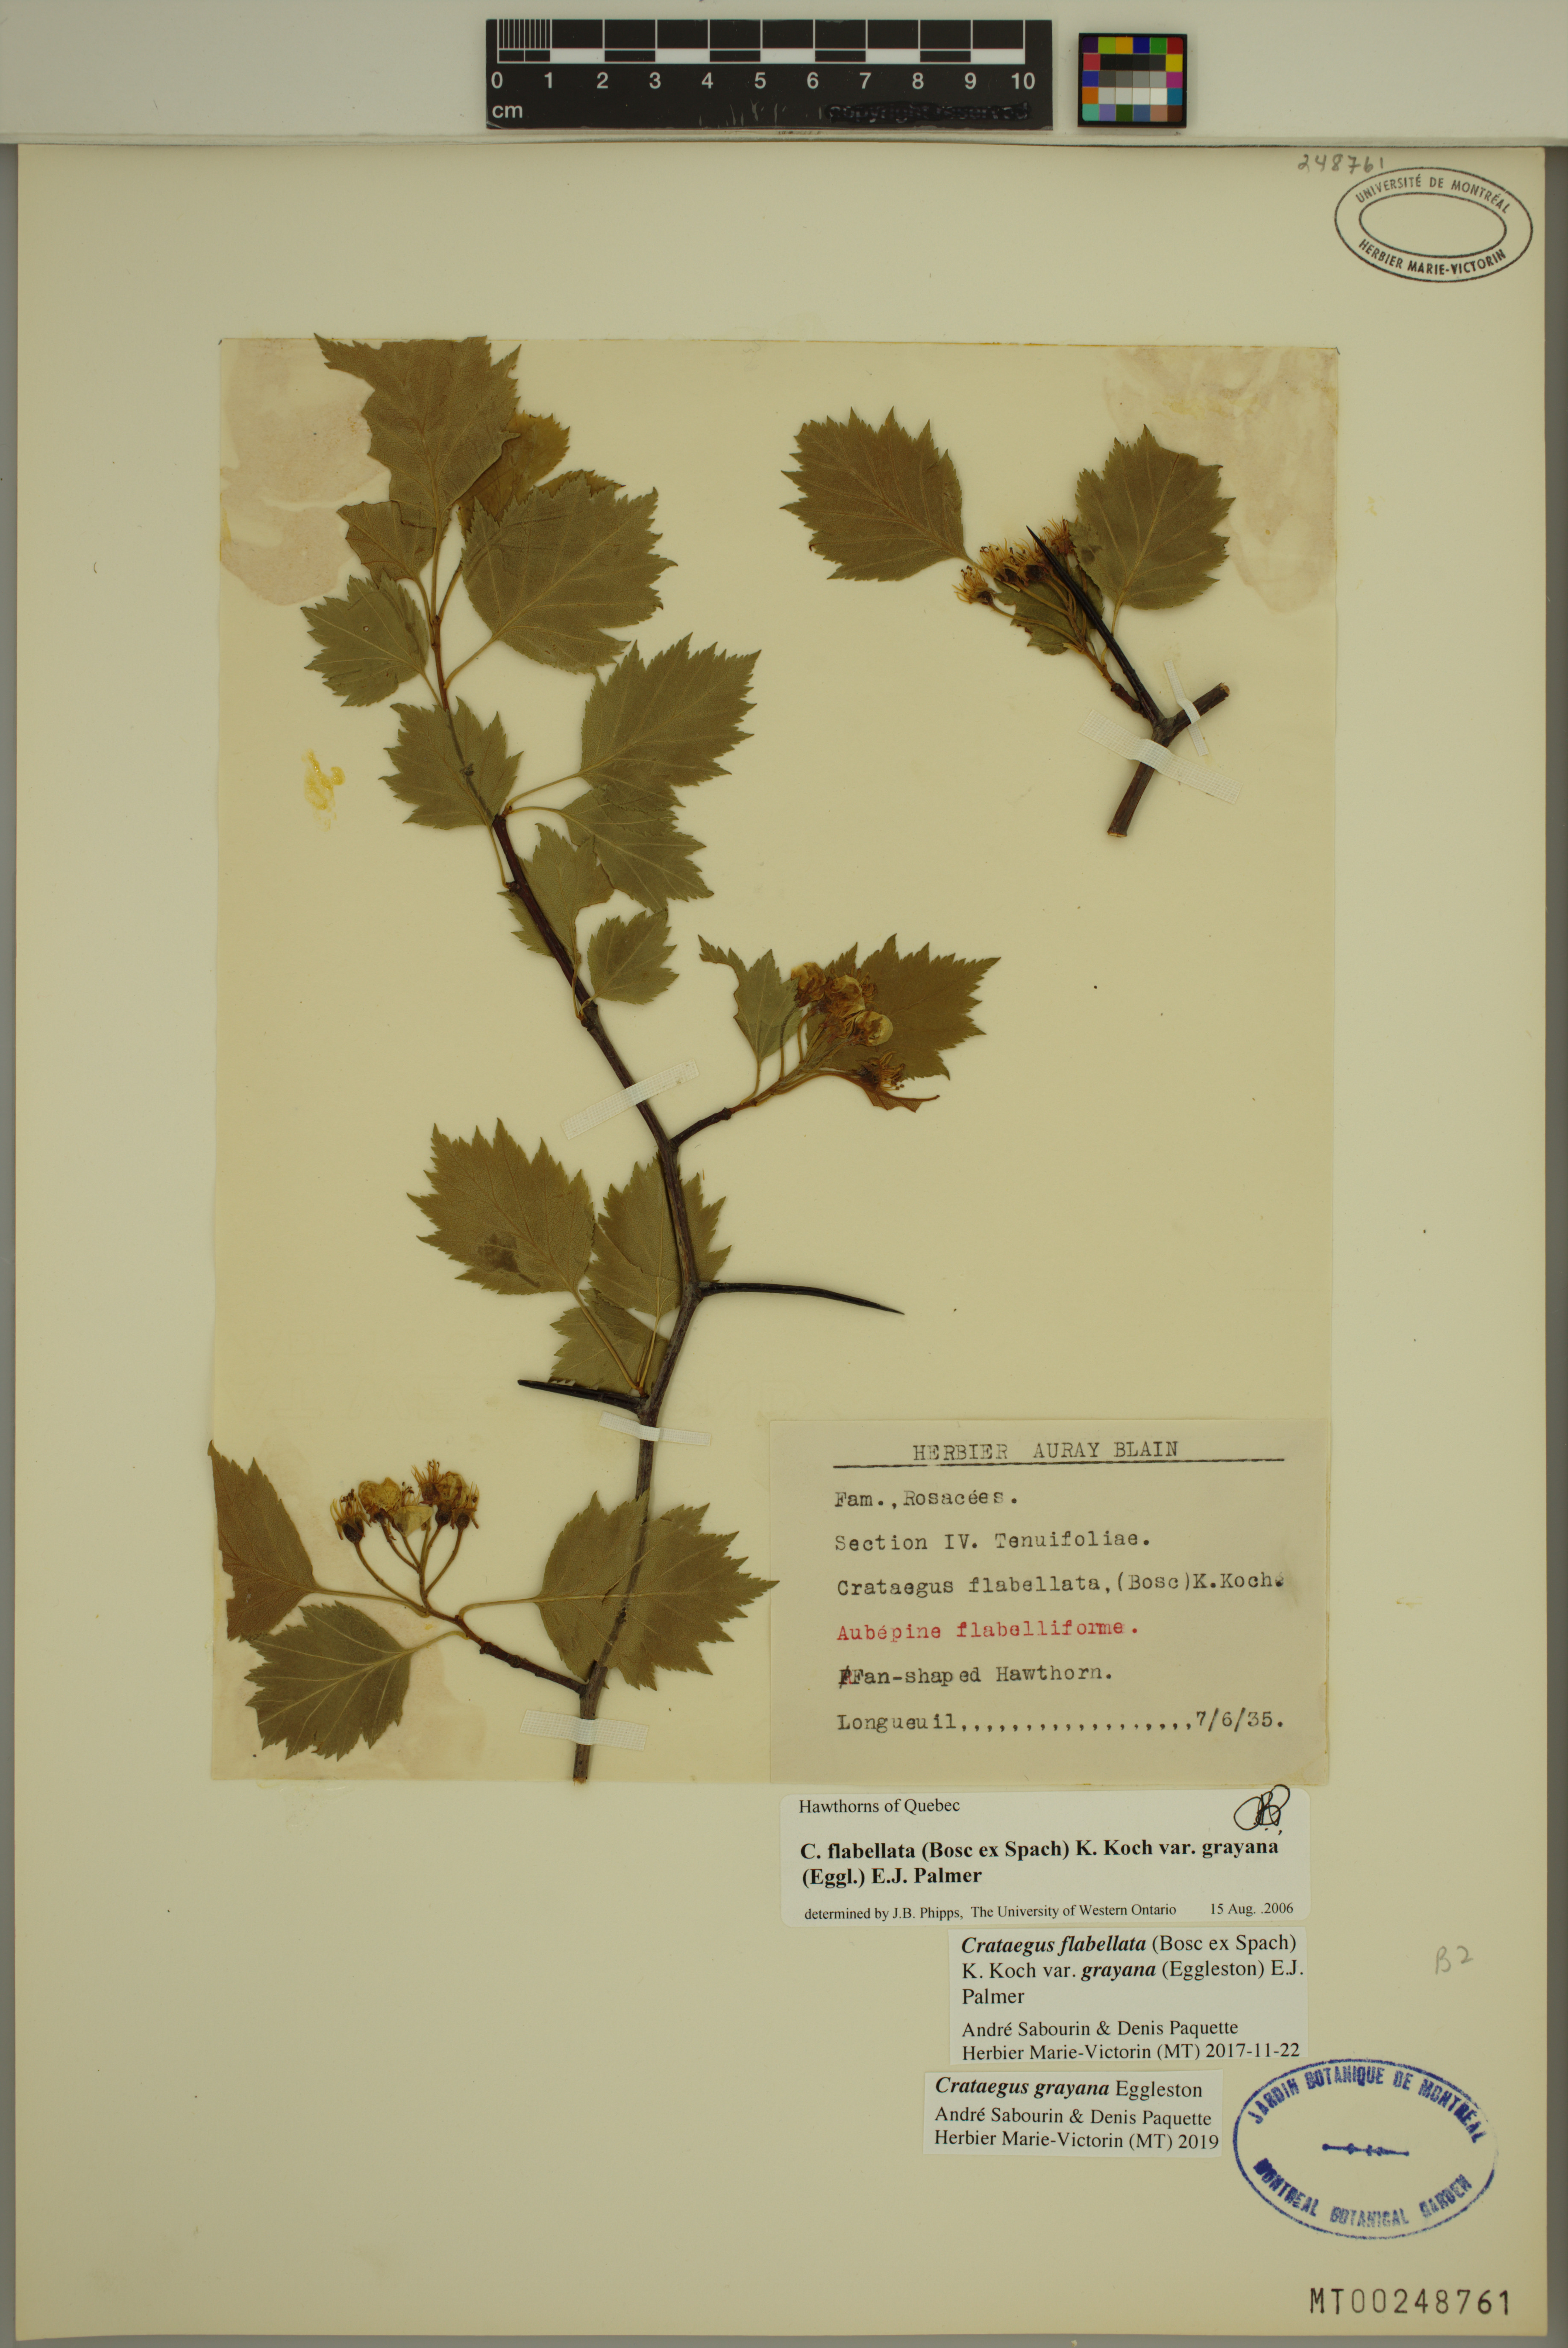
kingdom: Plantae
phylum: Tracheophyta
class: Magnoliopsida
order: Rosales
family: Rosaceae
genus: Crataegus
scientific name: Crataegus schuettei
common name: Schuette's hawthorn
